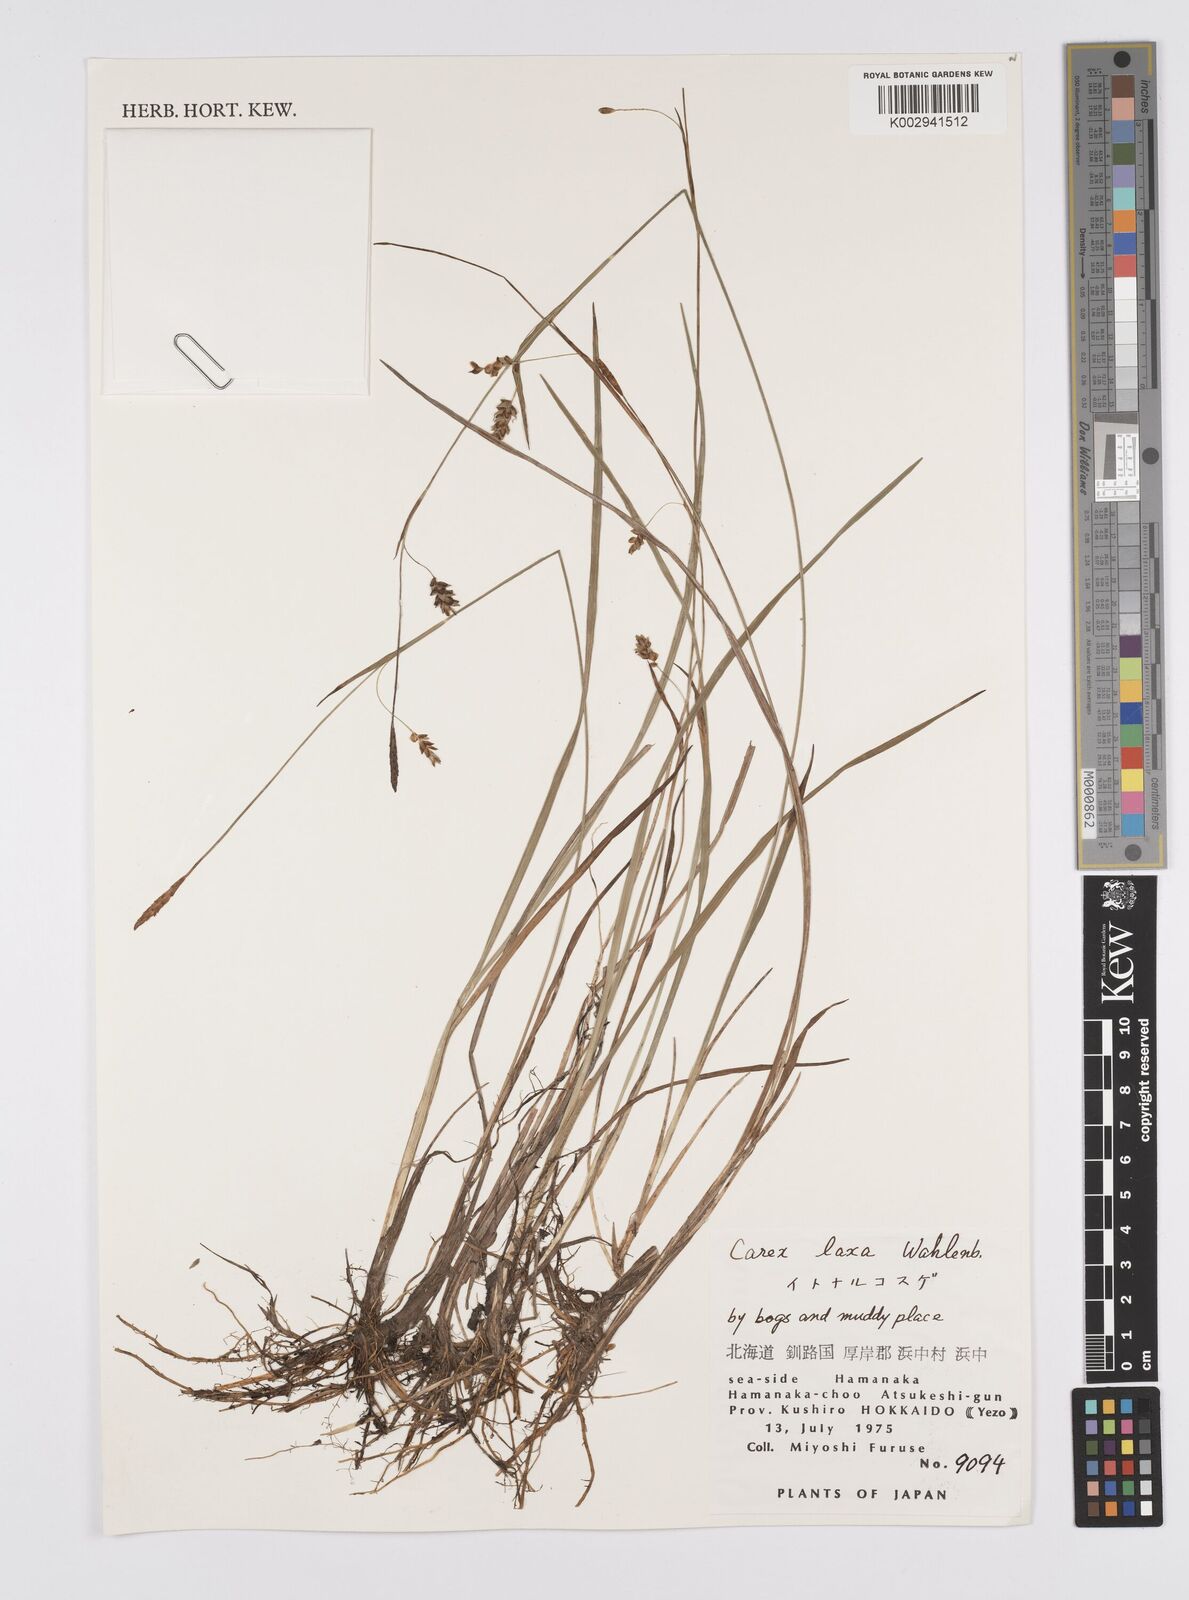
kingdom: Plantae
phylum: Tracheophyta
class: Liliopsida
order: Poales
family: Cyperaceae
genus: Carex
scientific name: Carex laxa
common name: Weak sedge
